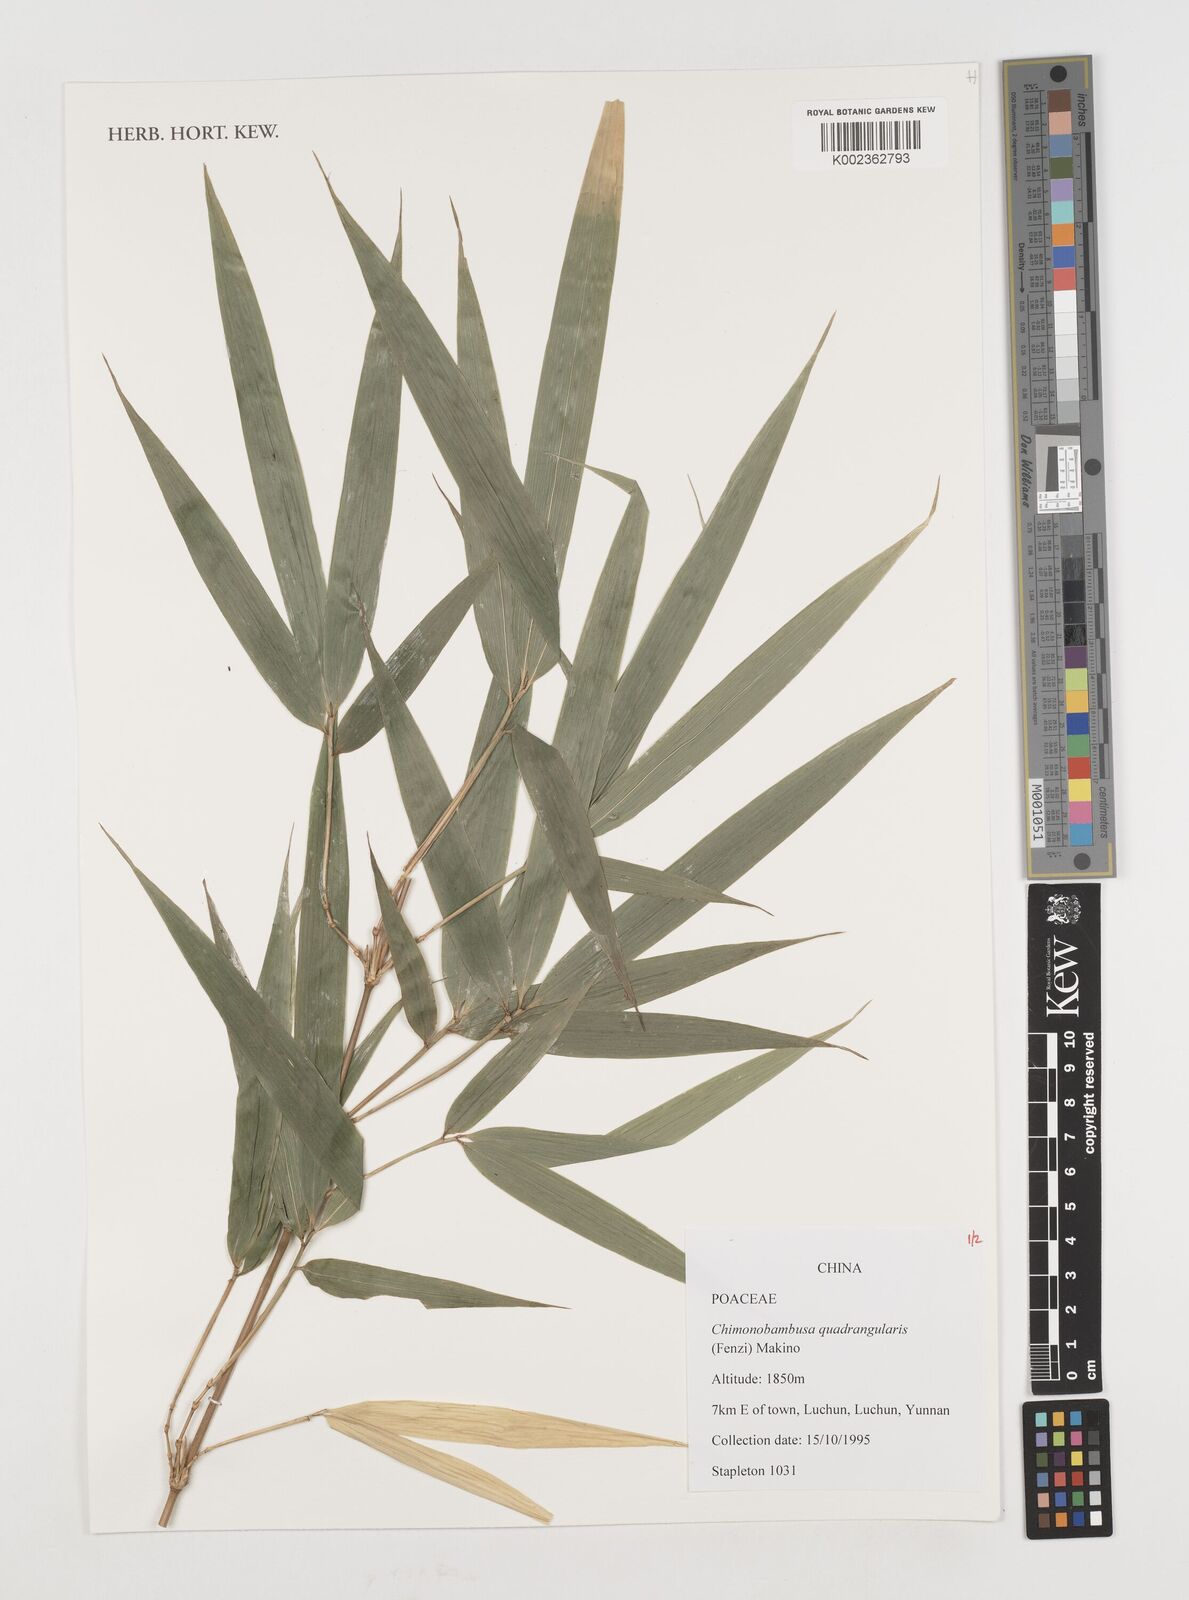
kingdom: Plantae
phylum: Tracheophyta
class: Liliopsida
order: Poales
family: Poaceae
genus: Chimonobambusa
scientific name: Chimonobambusa quadrangularis
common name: Square-stemmed bamboo
